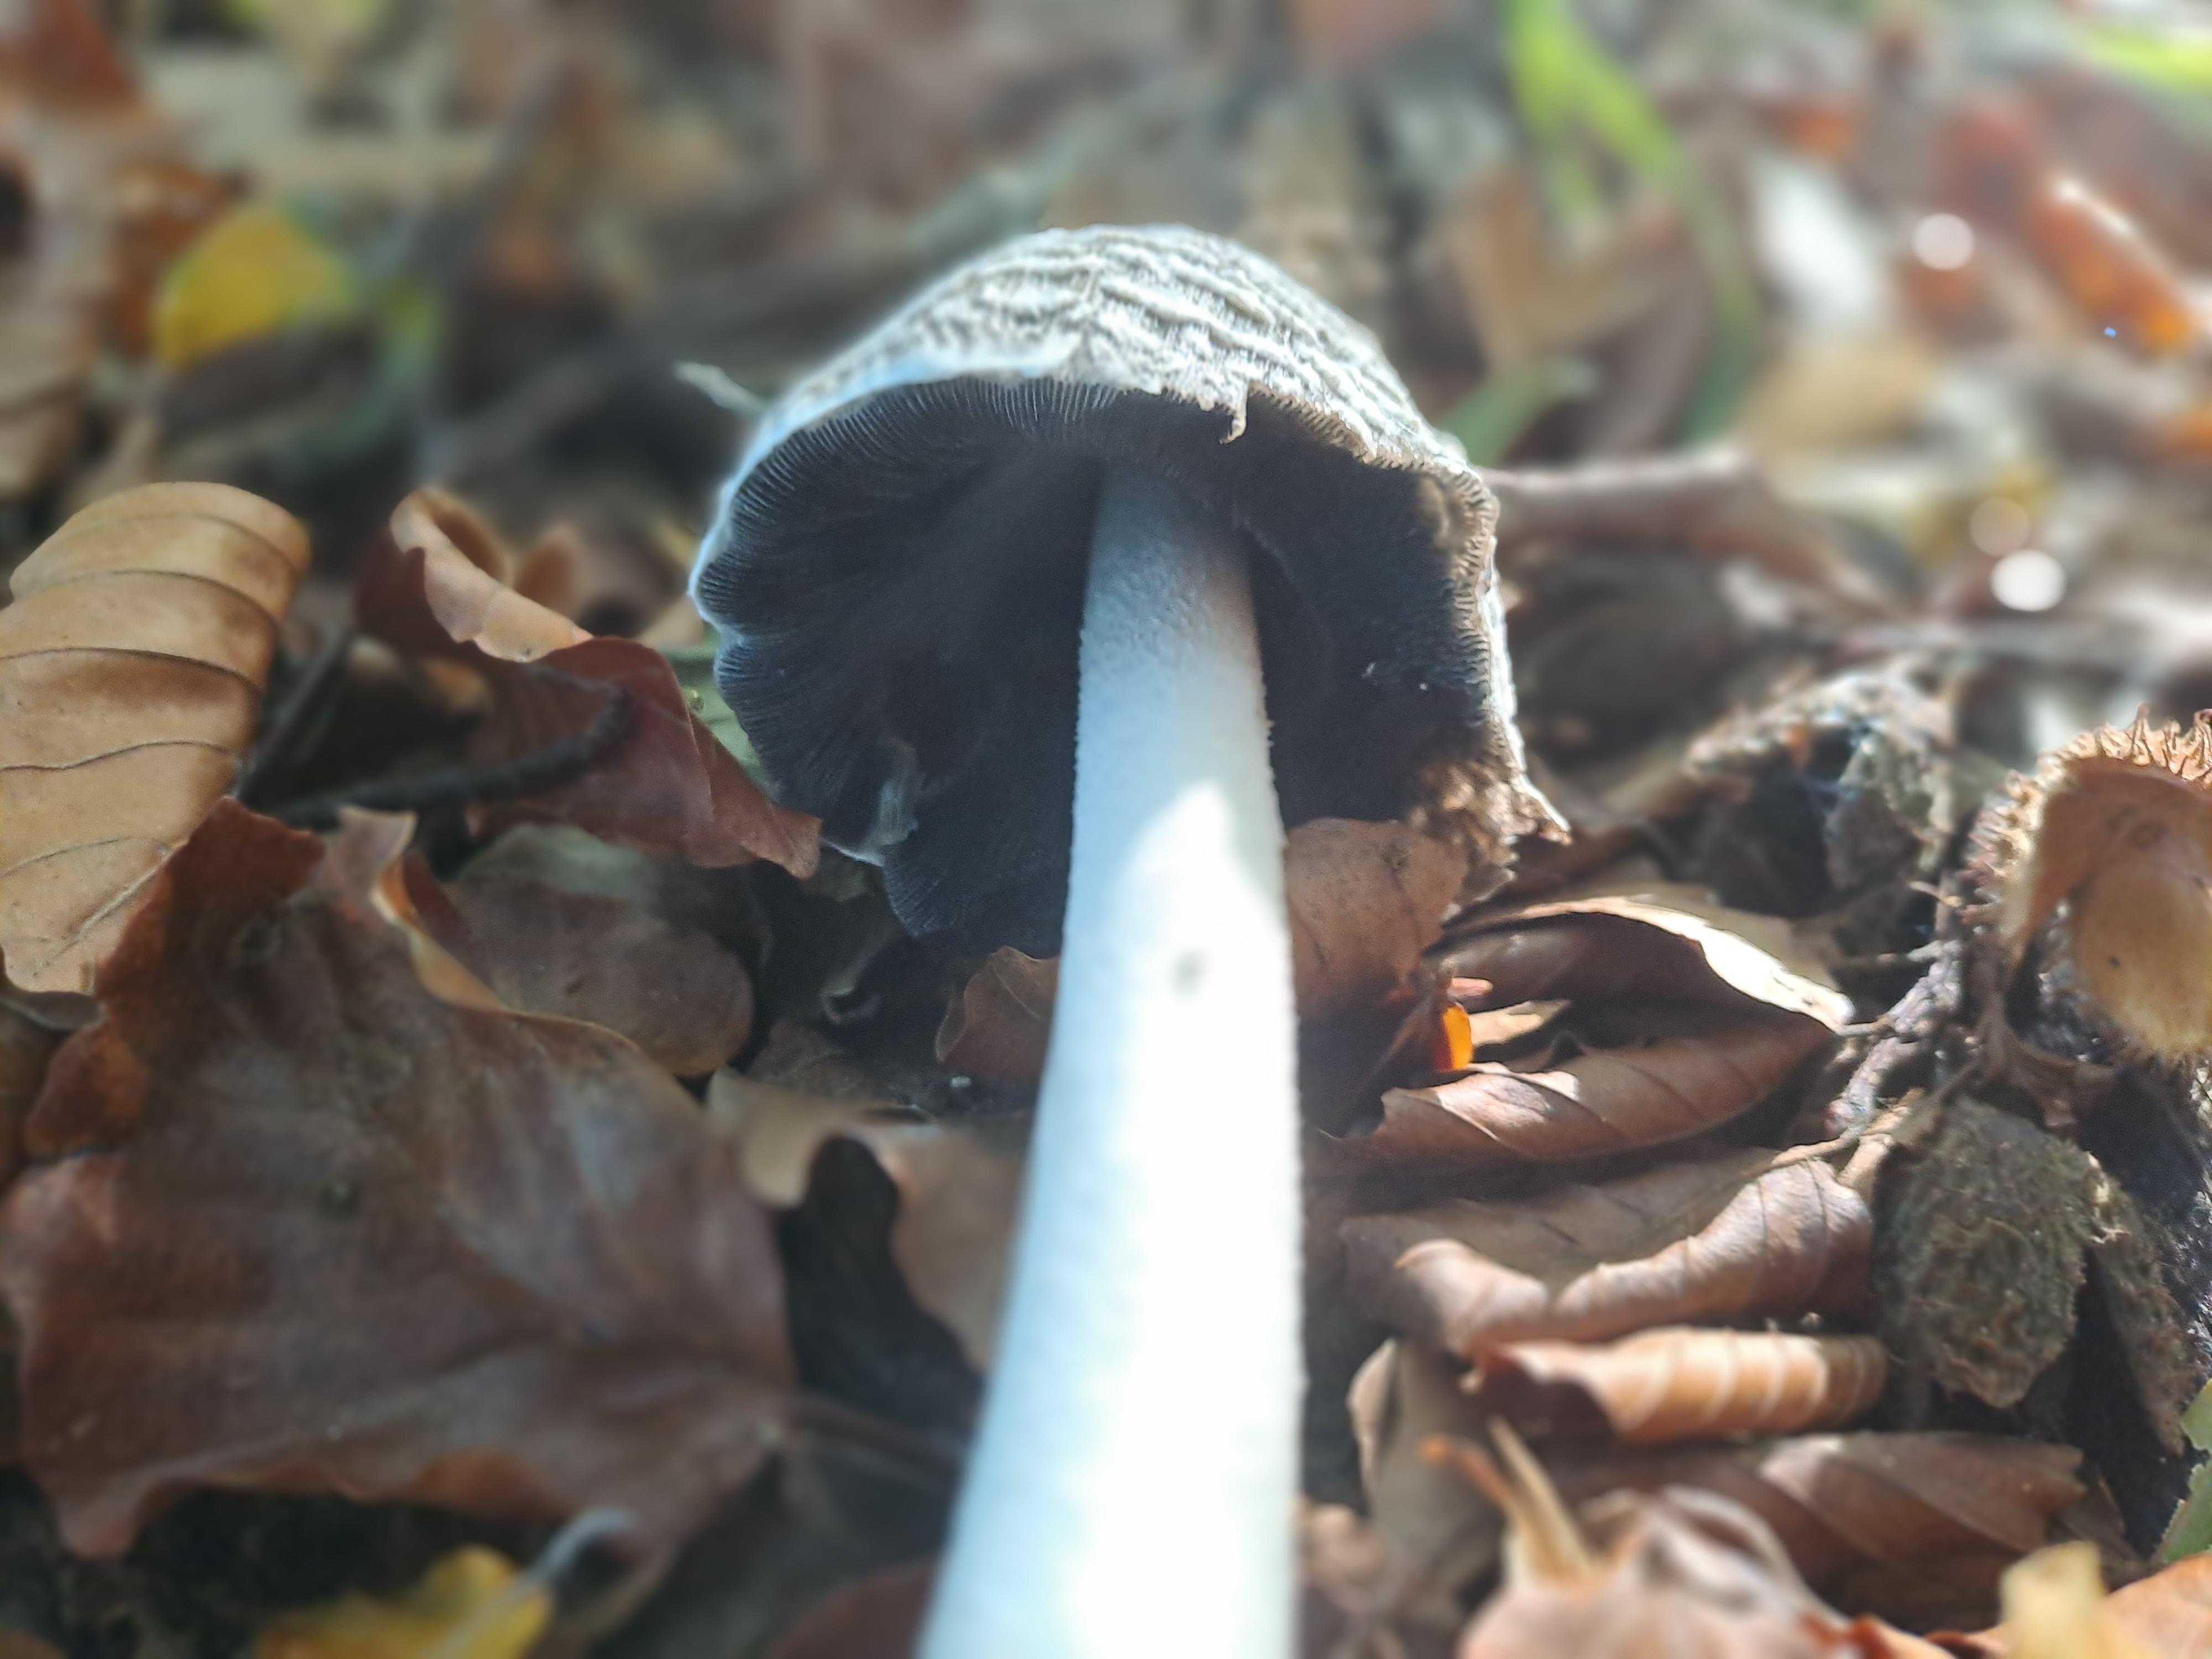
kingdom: Fungi
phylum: Basidiomycota
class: Agaricomycetes
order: Agaricales
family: Psathyrellaceae
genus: Coprinopsis
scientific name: Coprinopsis picacea
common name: skade-blækhat
